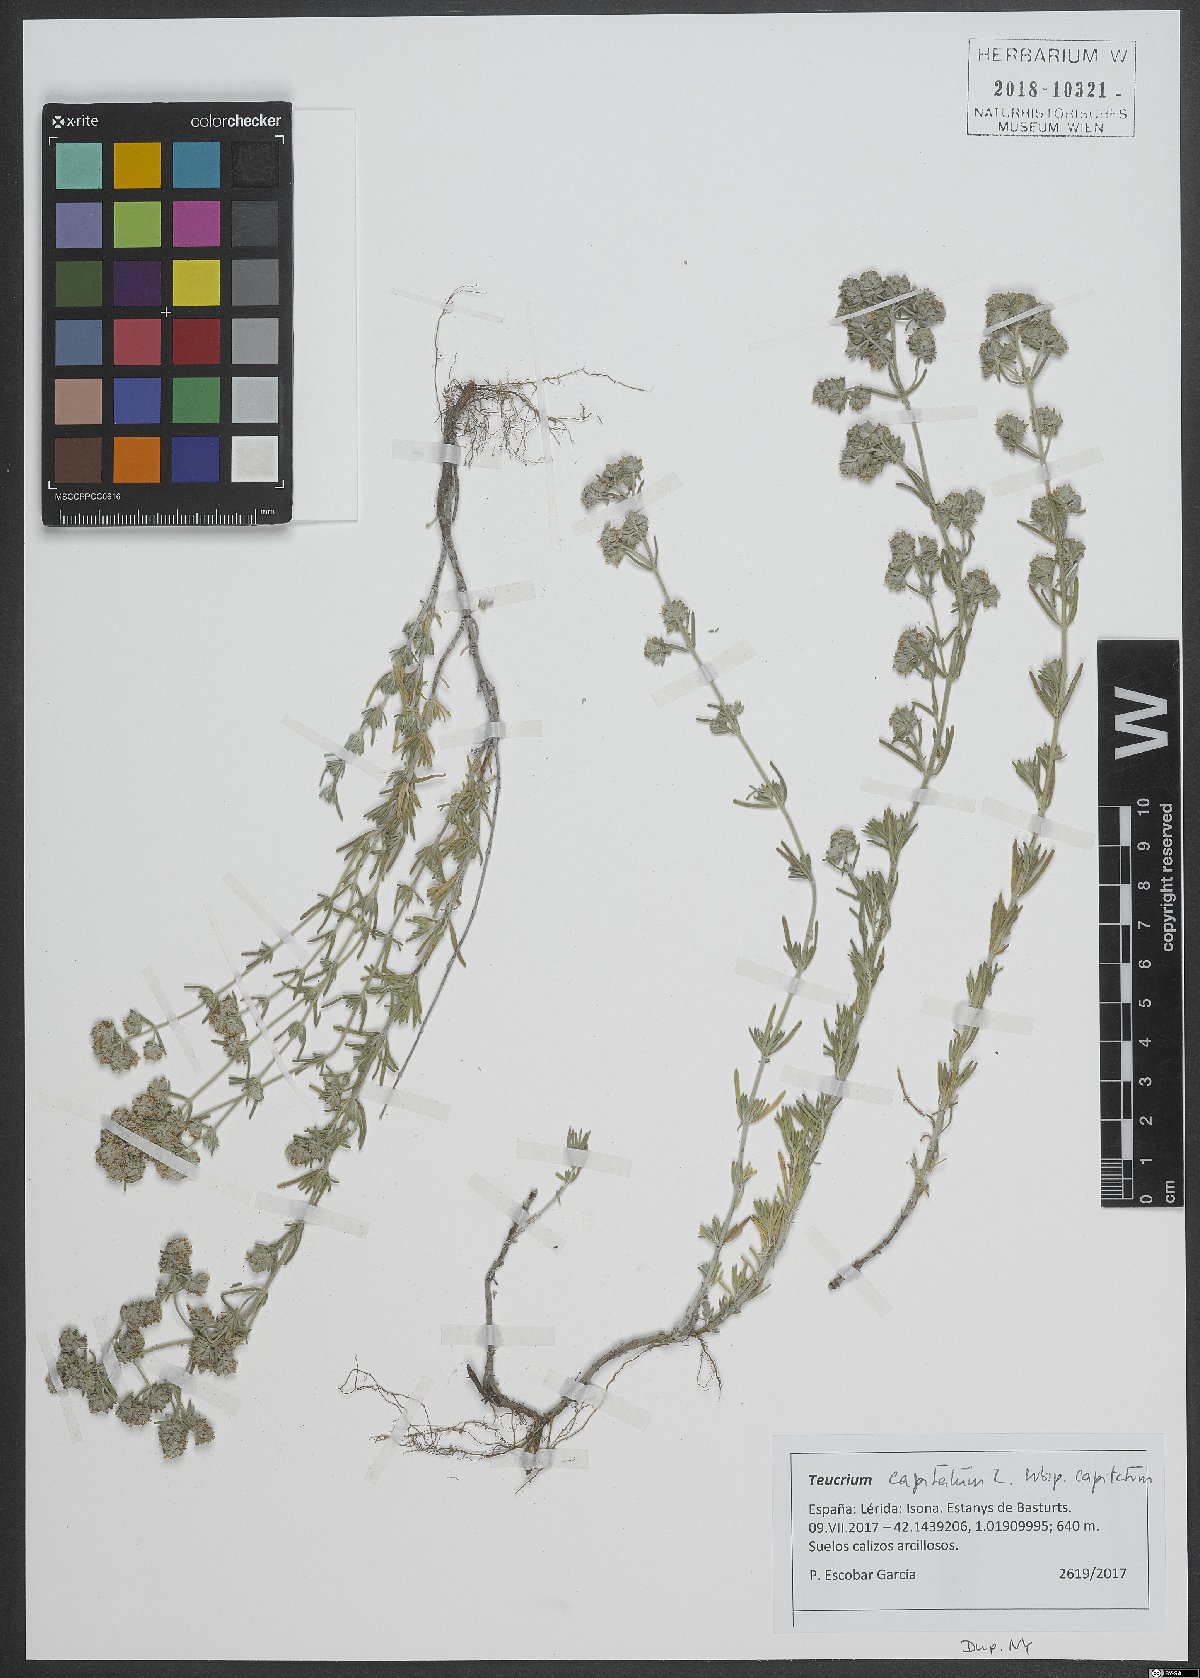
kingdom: Plantae
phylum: Tracheophyta
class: Magnoliopsida
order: Lamiales
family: Lamiaceae
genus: Teucrium
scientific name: Teucrium capitatum
